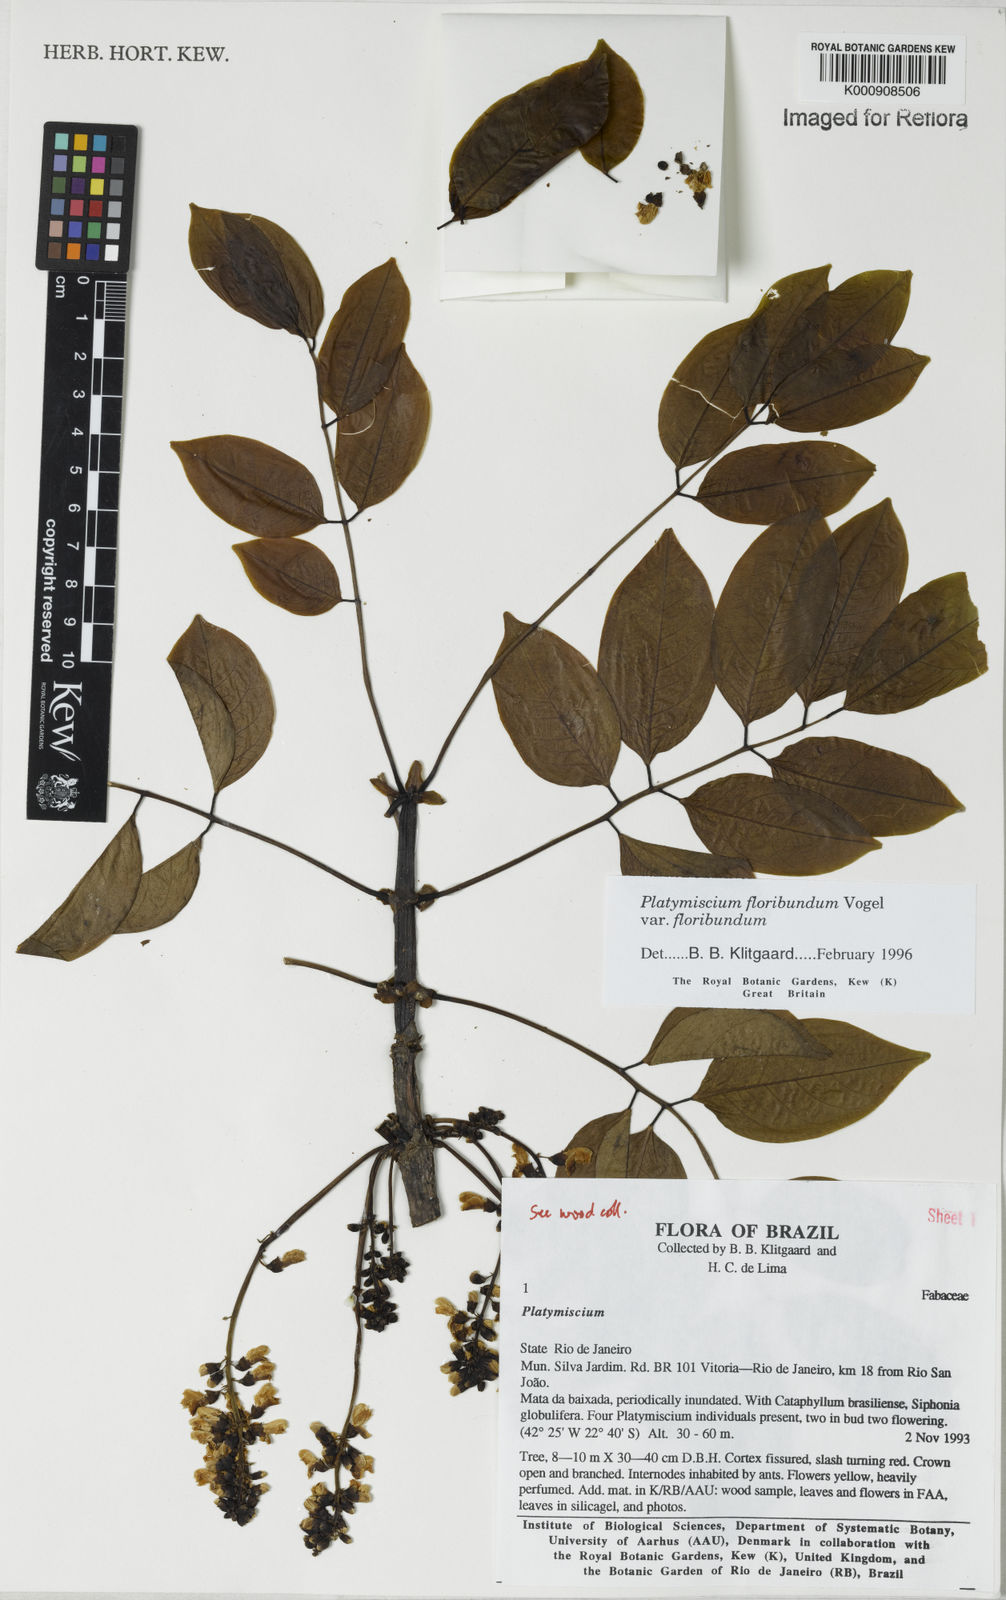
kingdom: Plantae
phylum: Tracheophyta
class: Magnoliopsida
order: Fabales
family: Fabaceae
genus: Platymiscium
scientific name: Platymiscium floribundum
